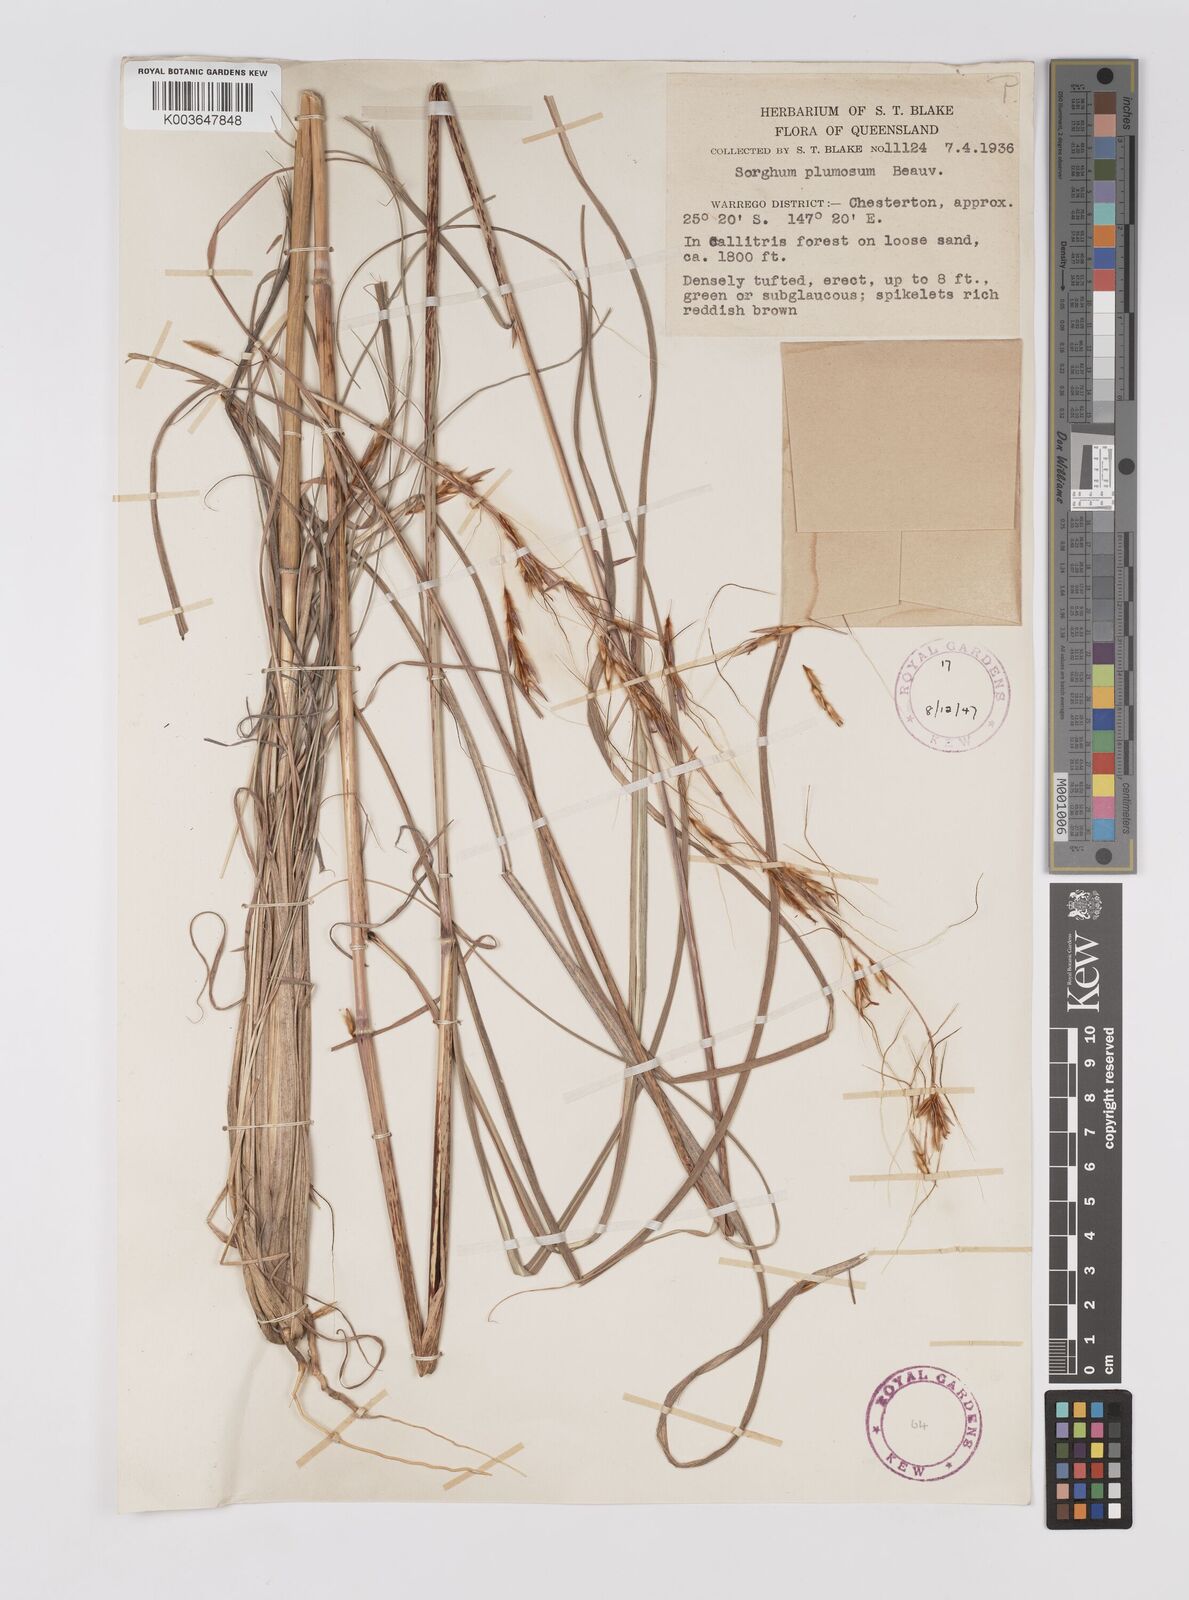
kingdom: Plantae
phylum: Tracheophyta
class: Liliopsida
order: Poales
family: Poaceae
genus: Sarga
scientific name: Sarga plumosa
